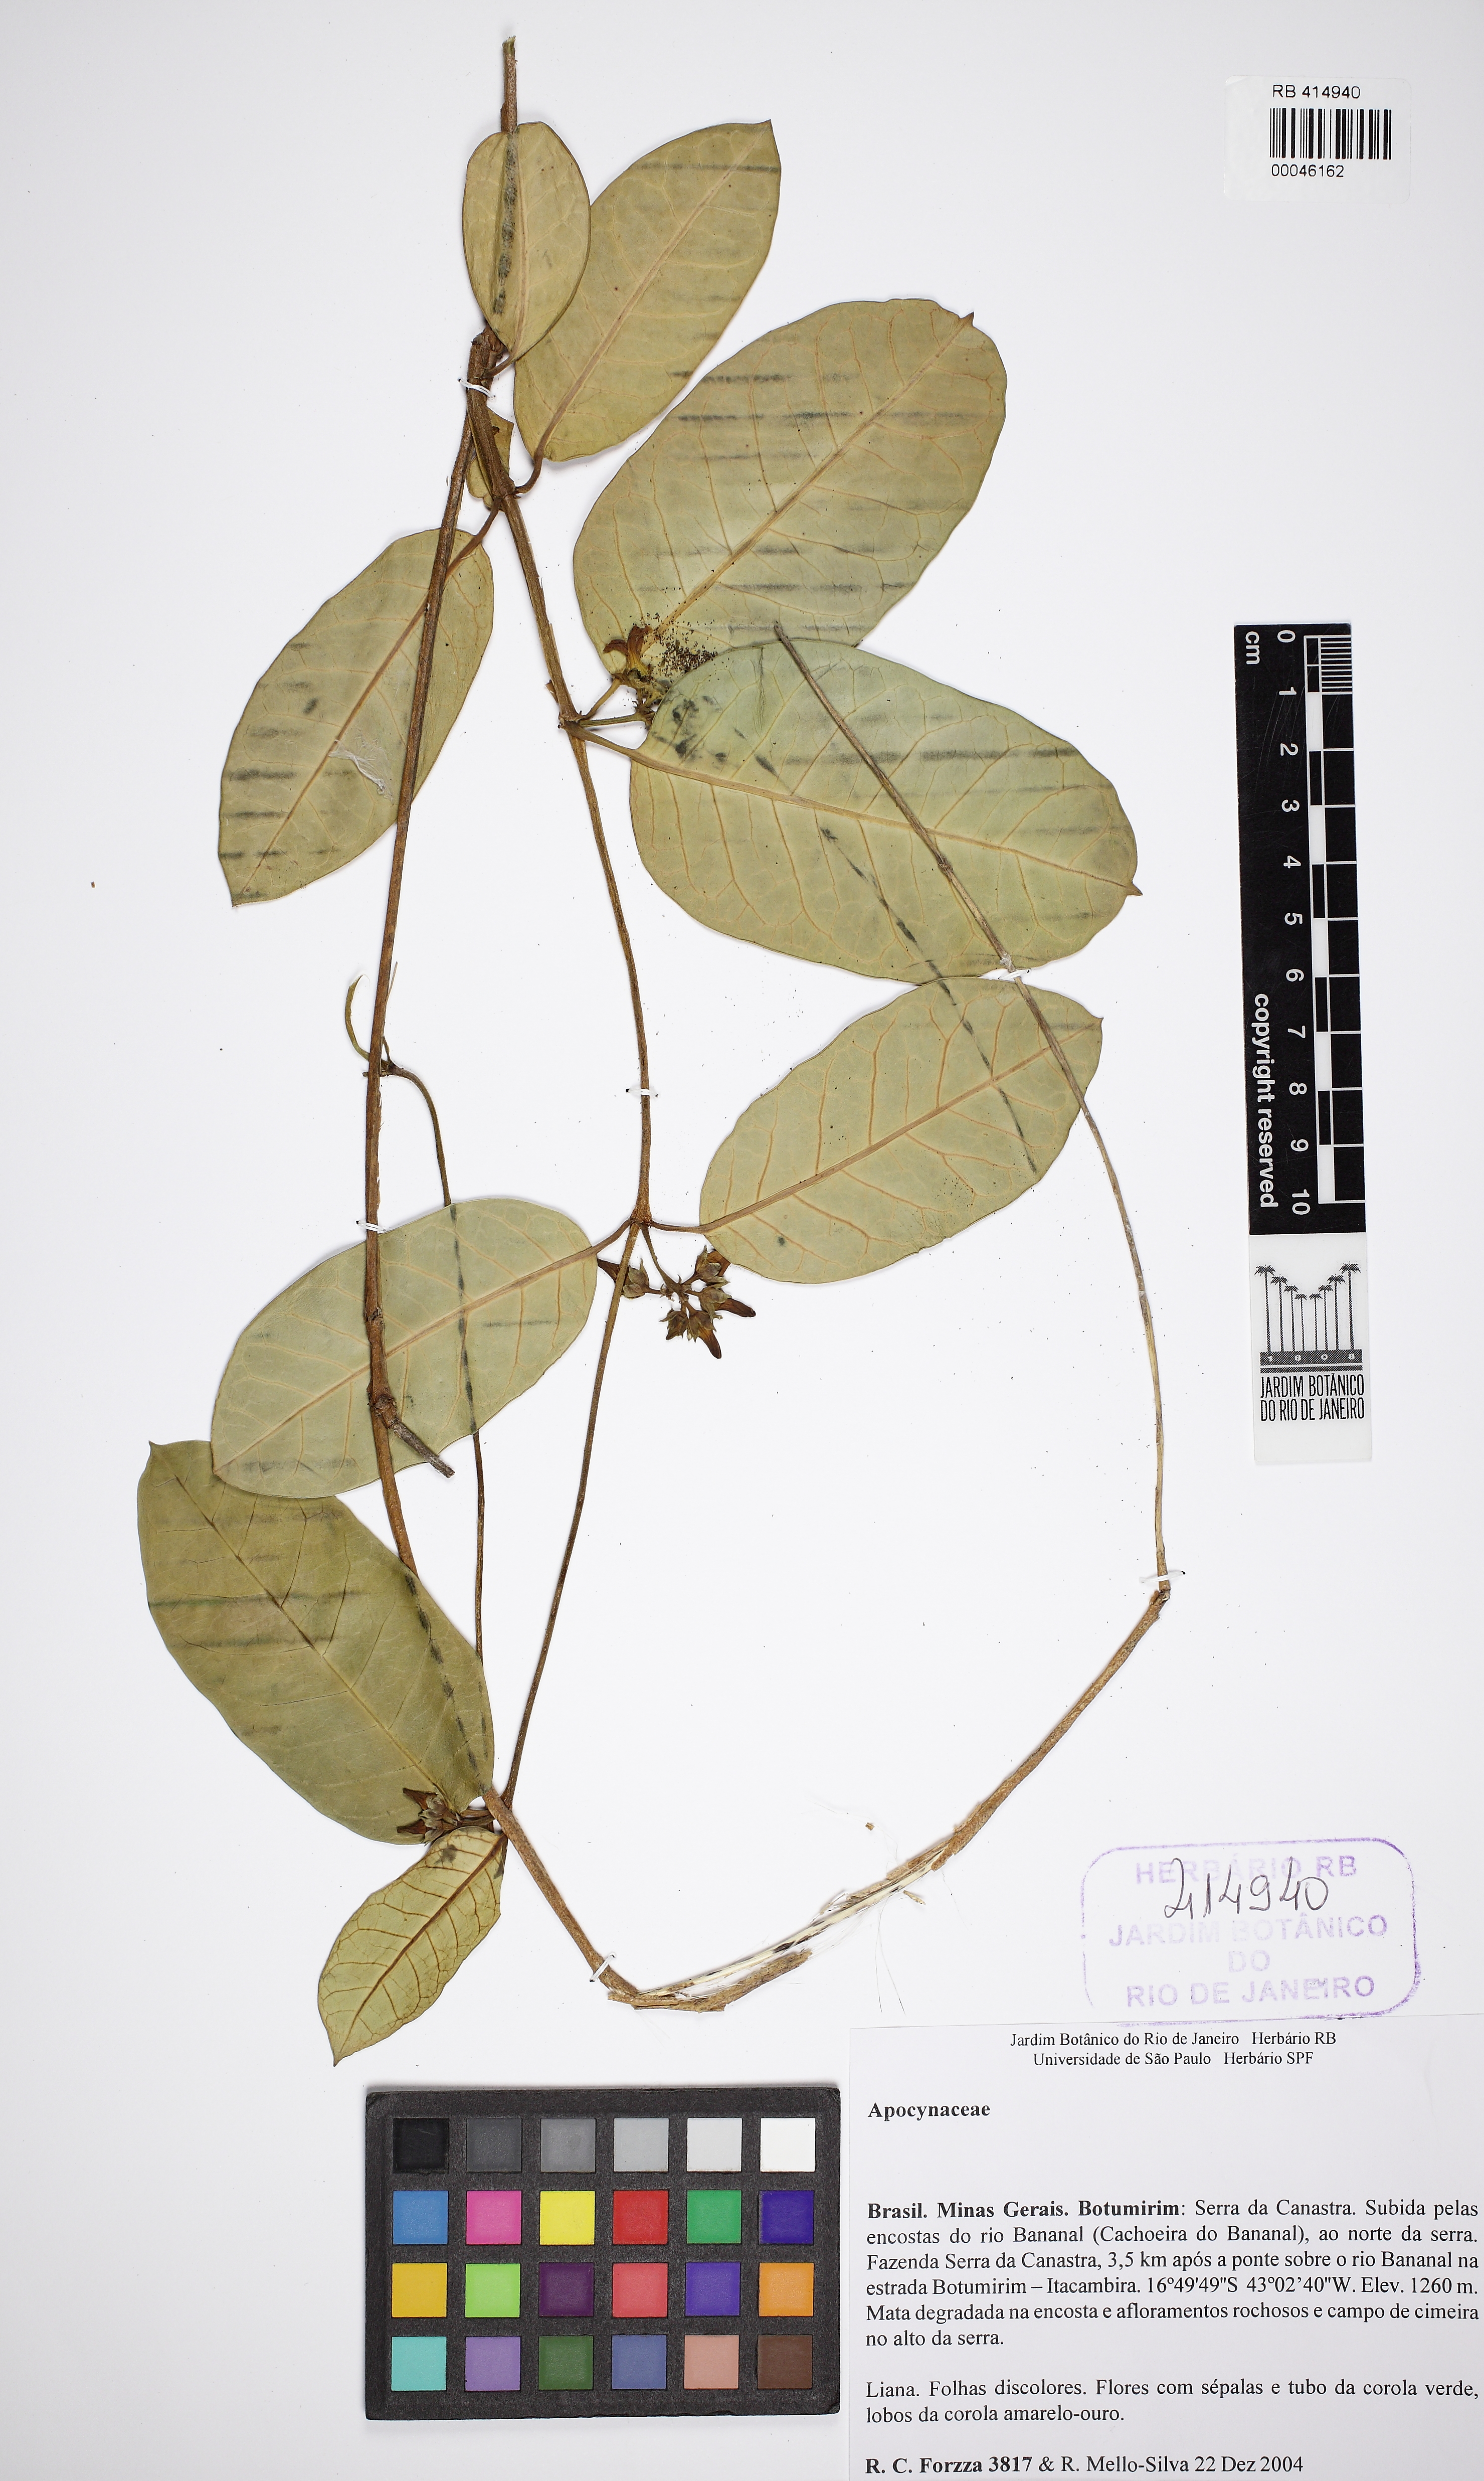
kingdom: Plantae
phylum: Tracheophyta
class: Magnoliopsida
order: Gentianales
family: Apocynaceae
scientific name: Apocynaceae
